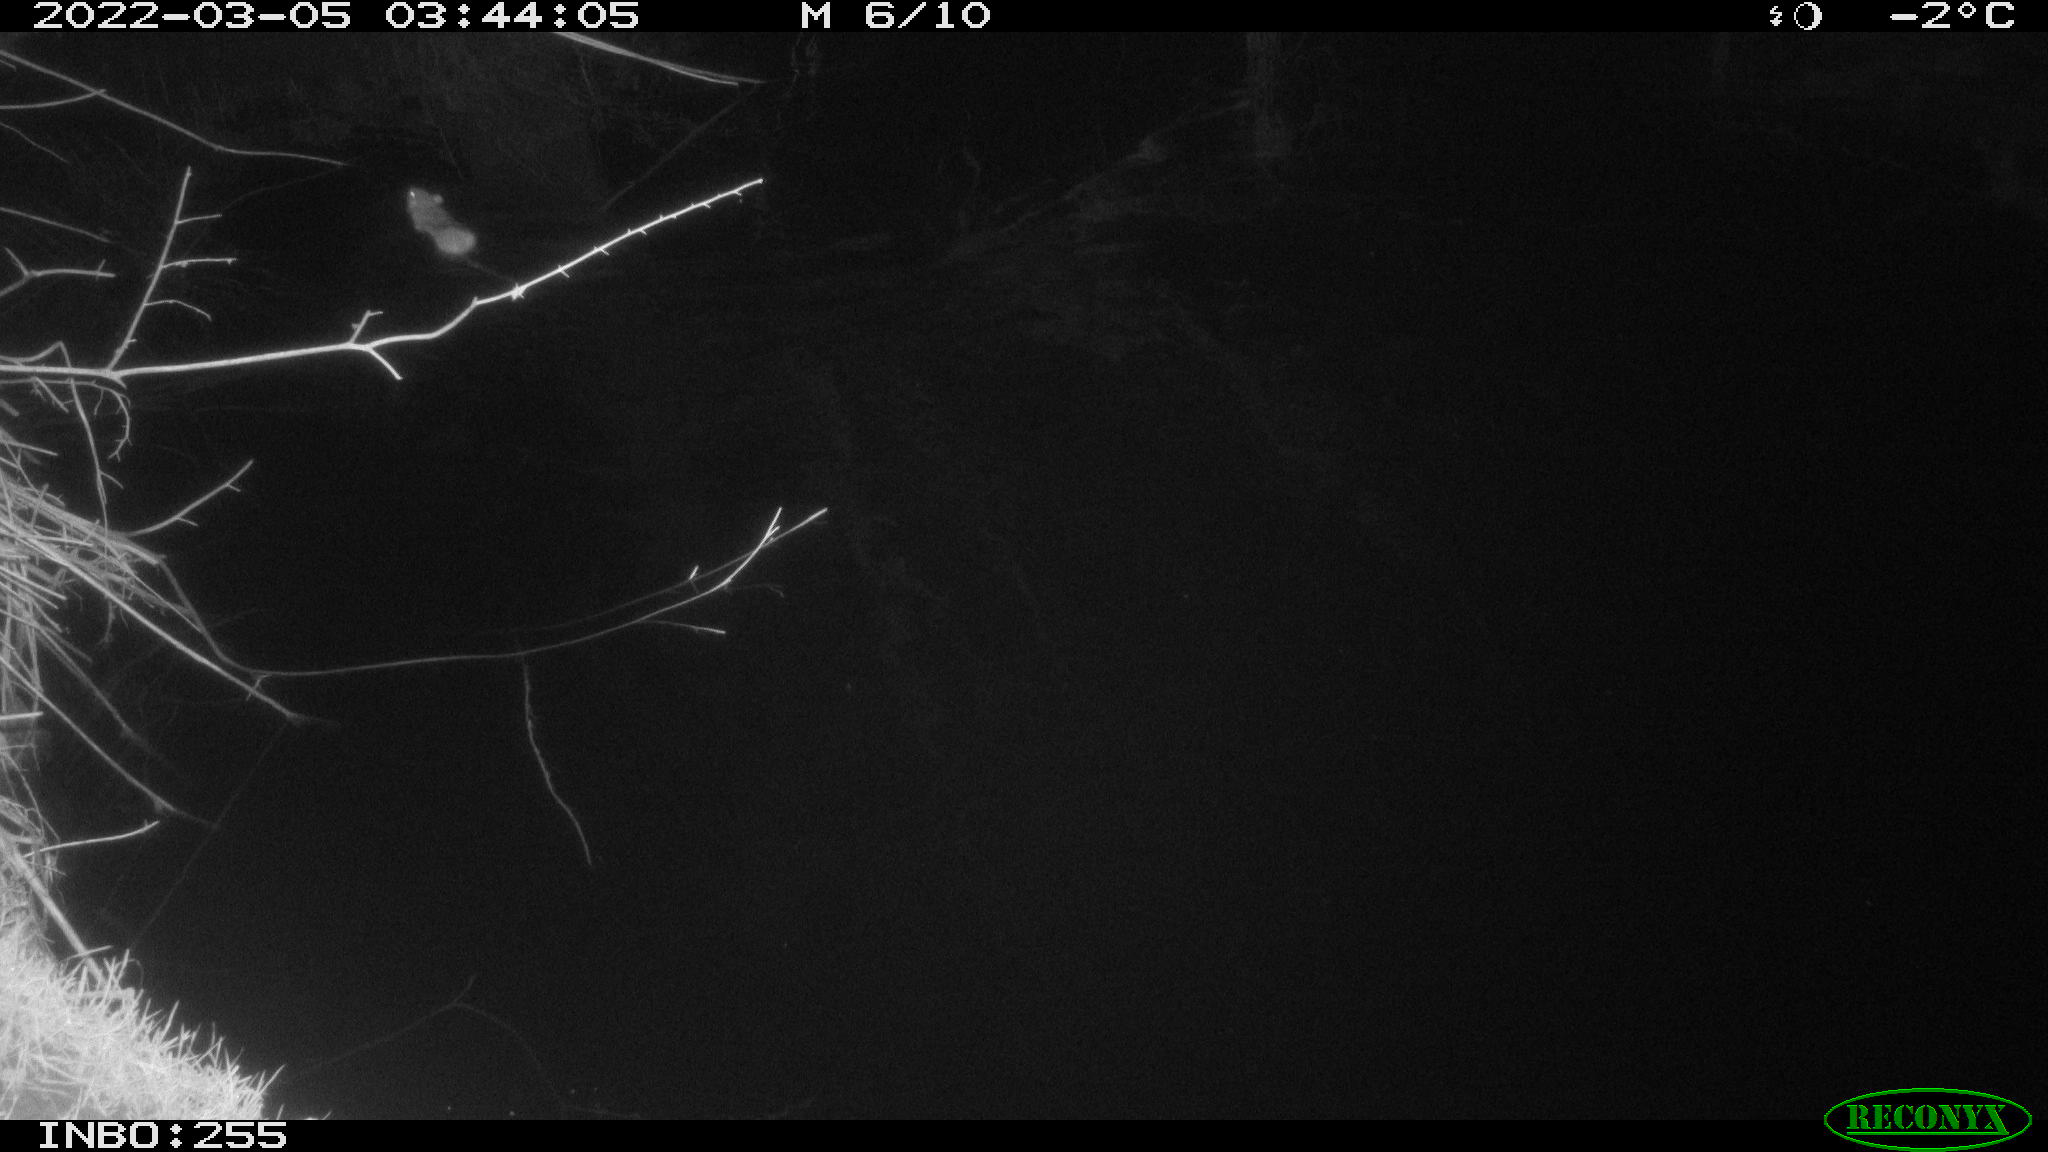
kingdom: Animalia
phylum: Chordata
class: Mammalia
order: Rodentia
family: Muridae
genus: Rattus
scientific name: Rattus norvegicus
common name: Brown rat
